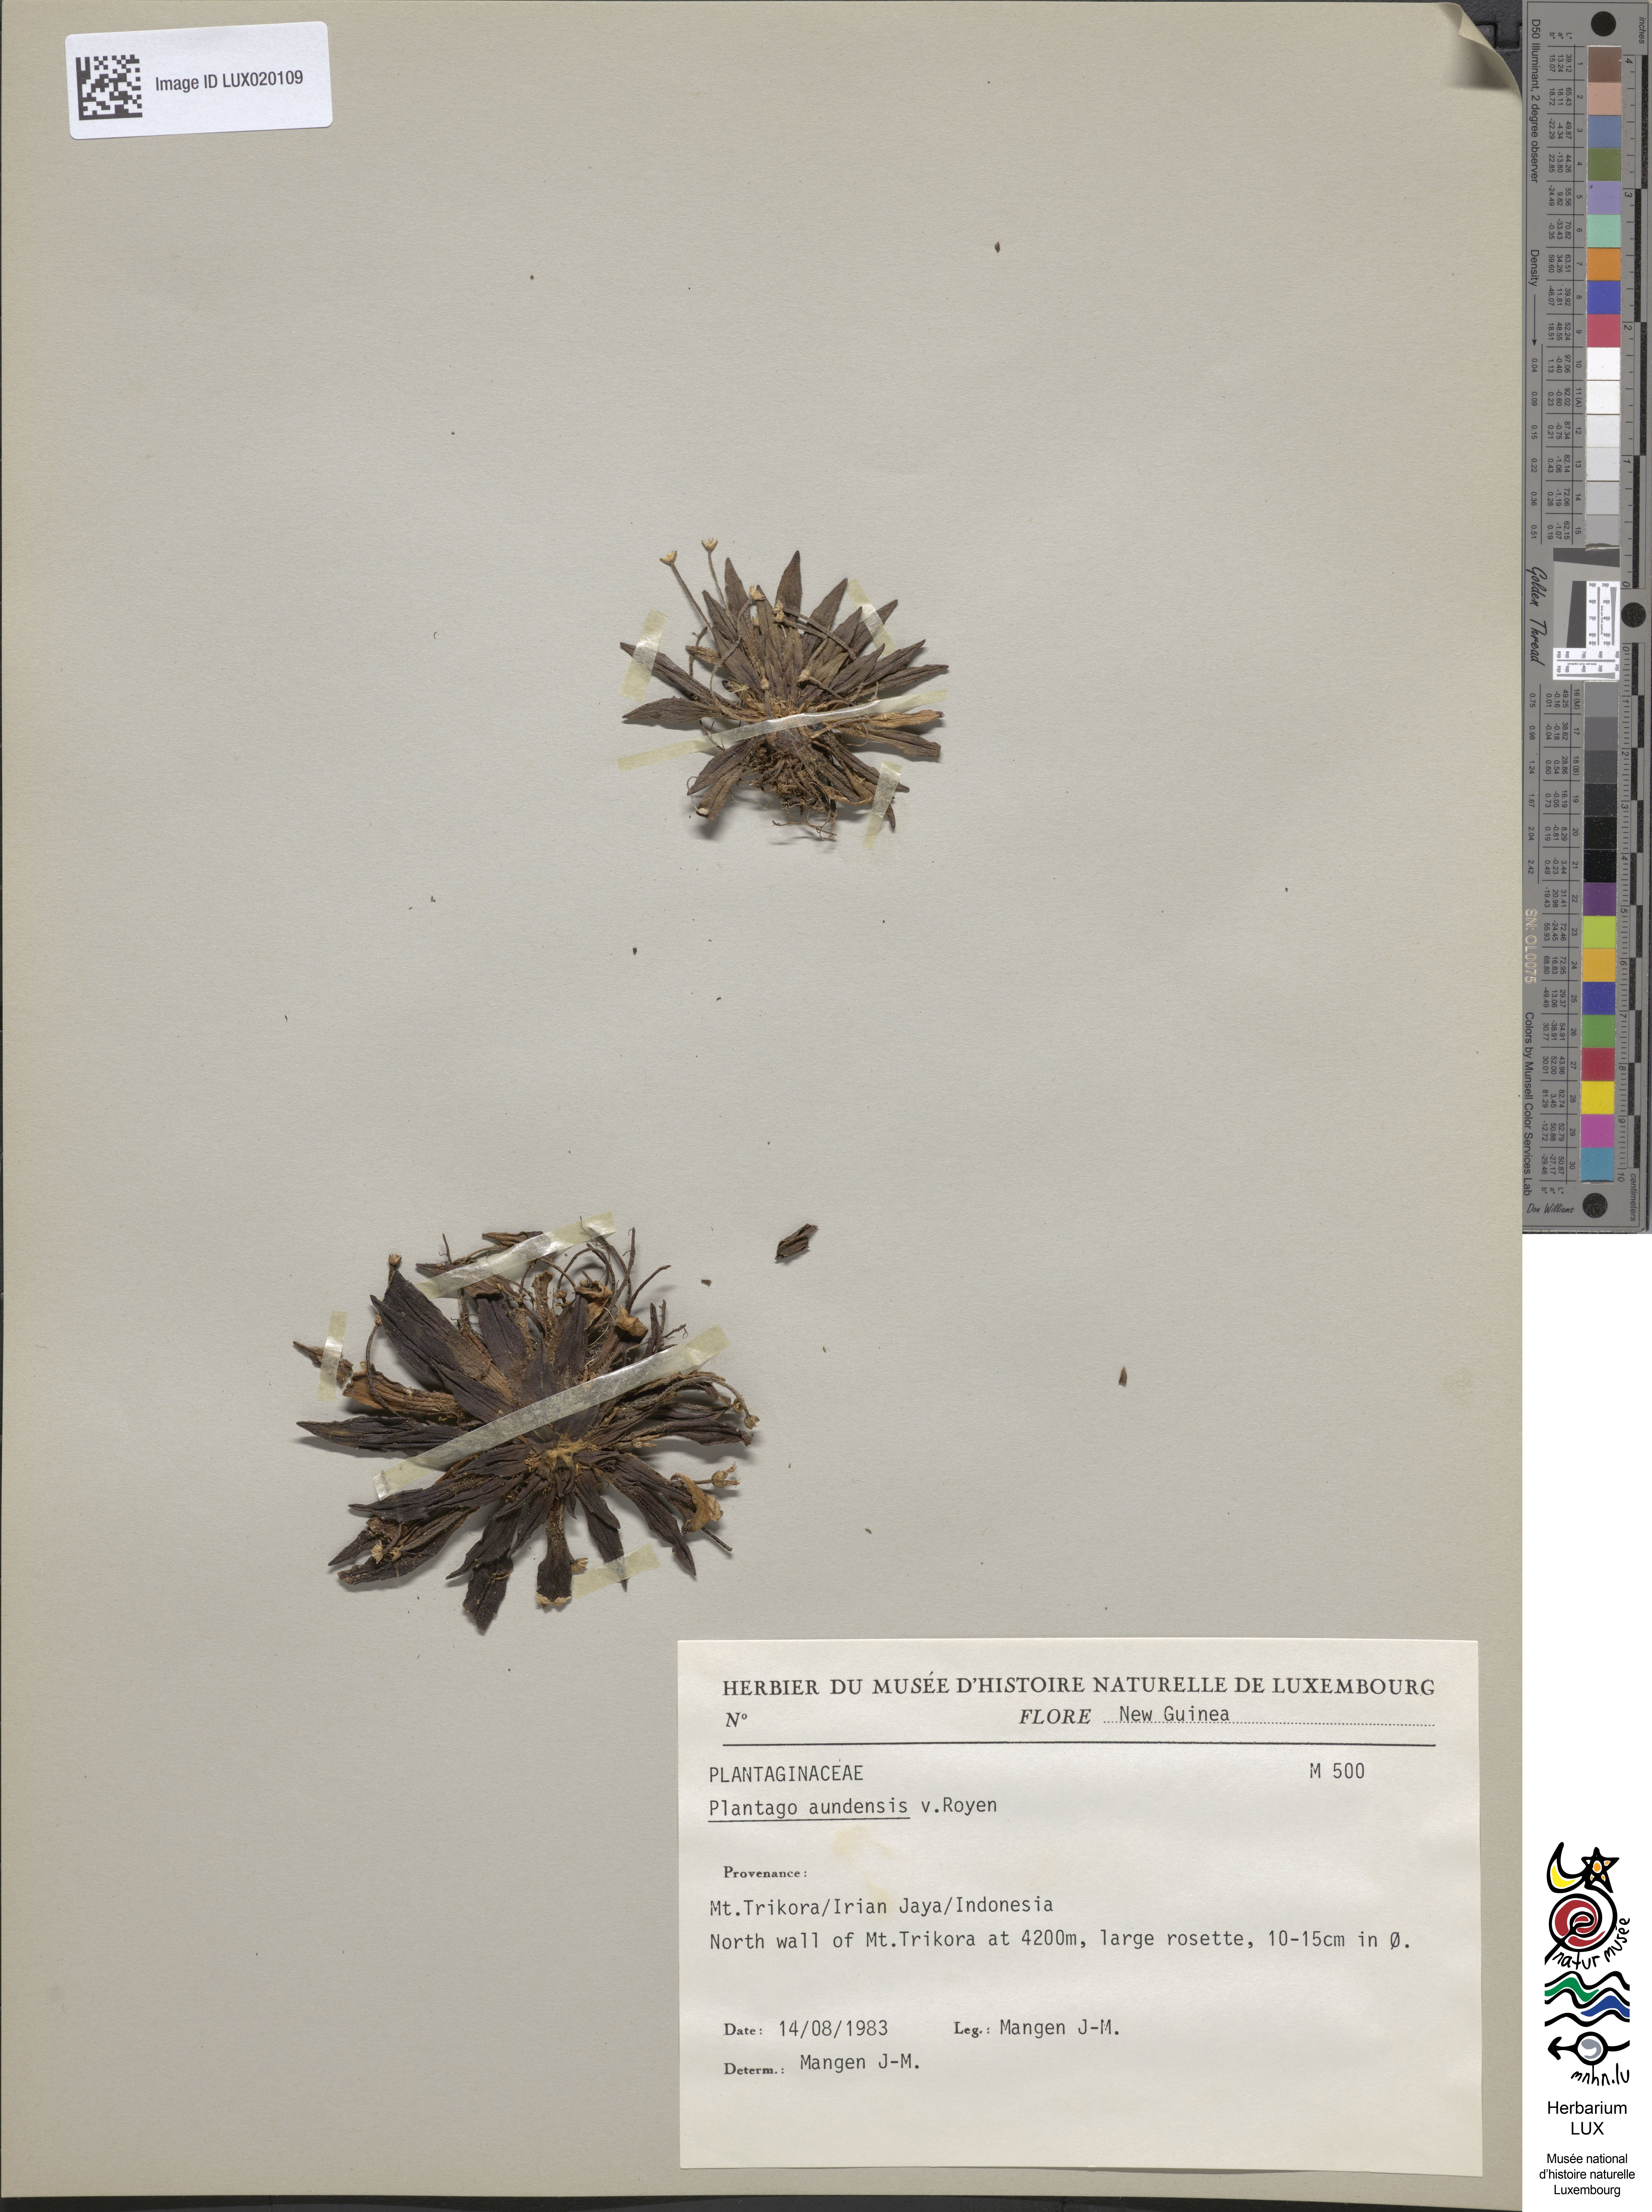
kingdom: Plantae
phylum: Tracheophyta
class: Magnoliopsida
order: Lamiales
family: Plantaginaceae
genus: Plantago
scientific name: Plantago aundensis
